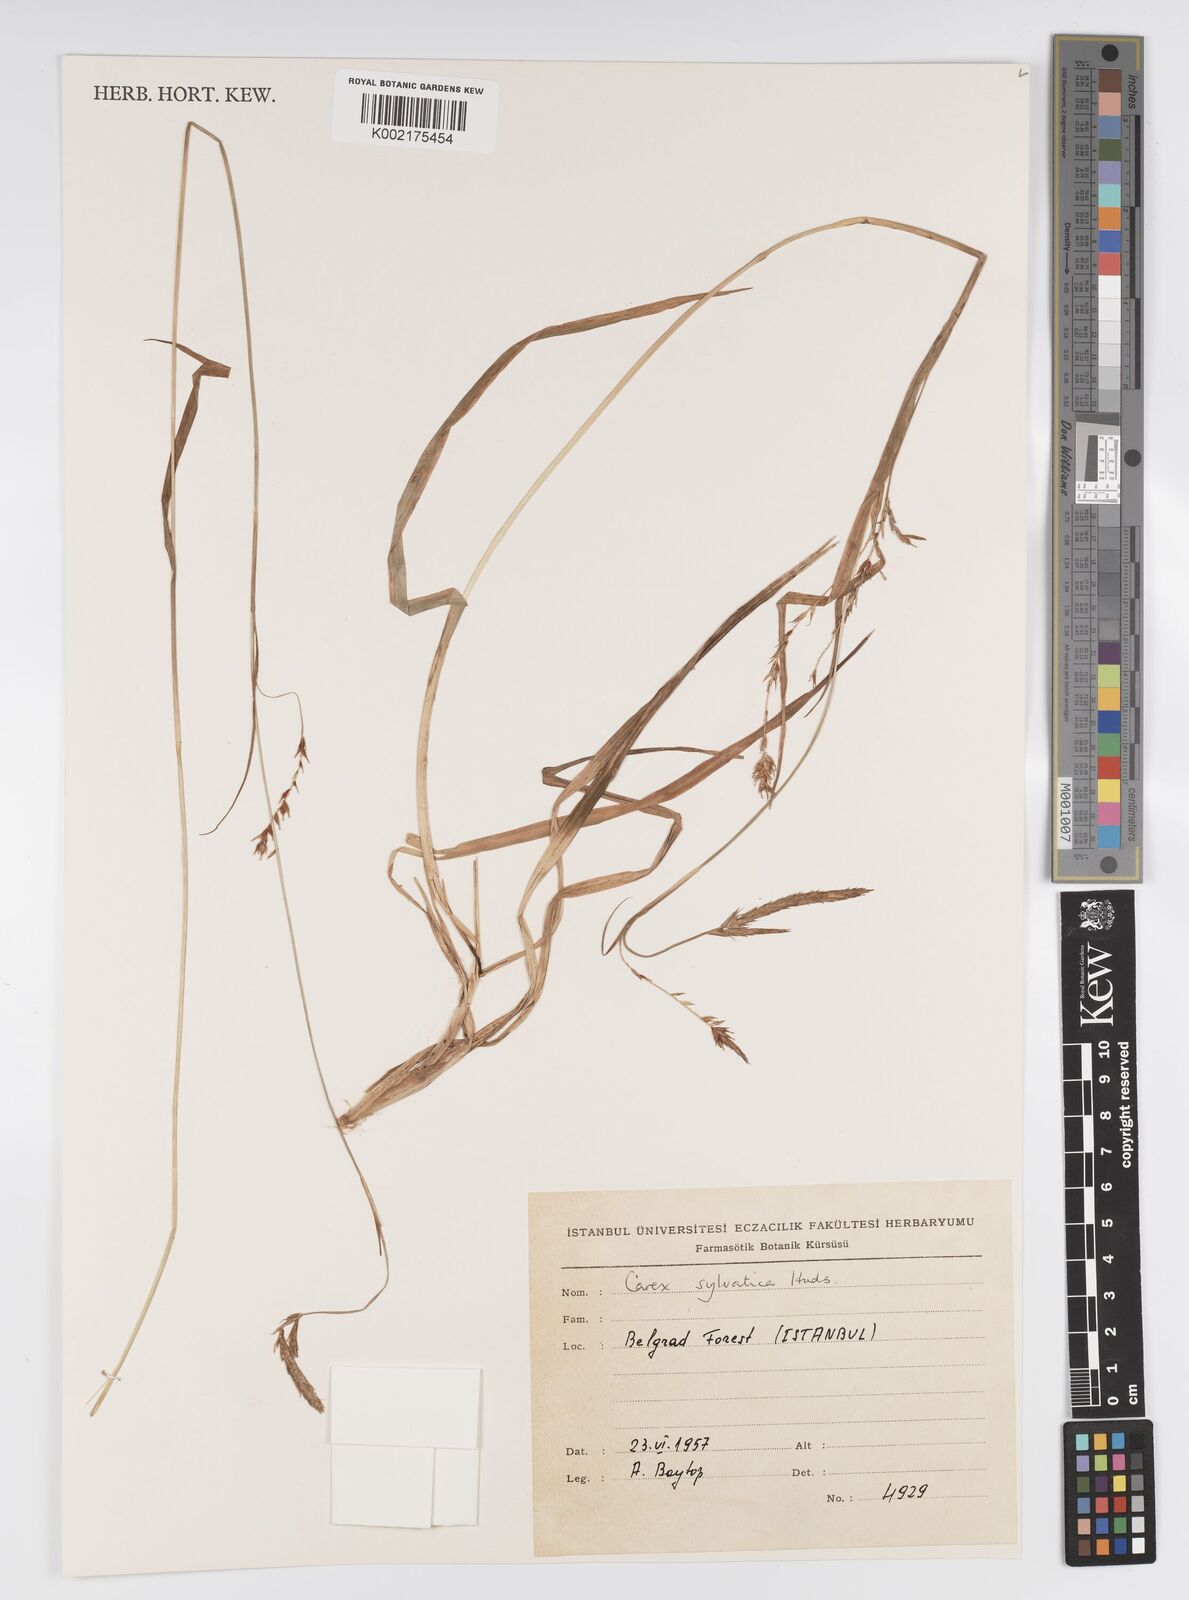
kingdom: Plantae
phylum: Tracheophyta
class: Liliopsida
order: Poales
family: Cyperaceae
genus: Carex
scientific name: Carex sylvatica
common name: Wood-sedge
